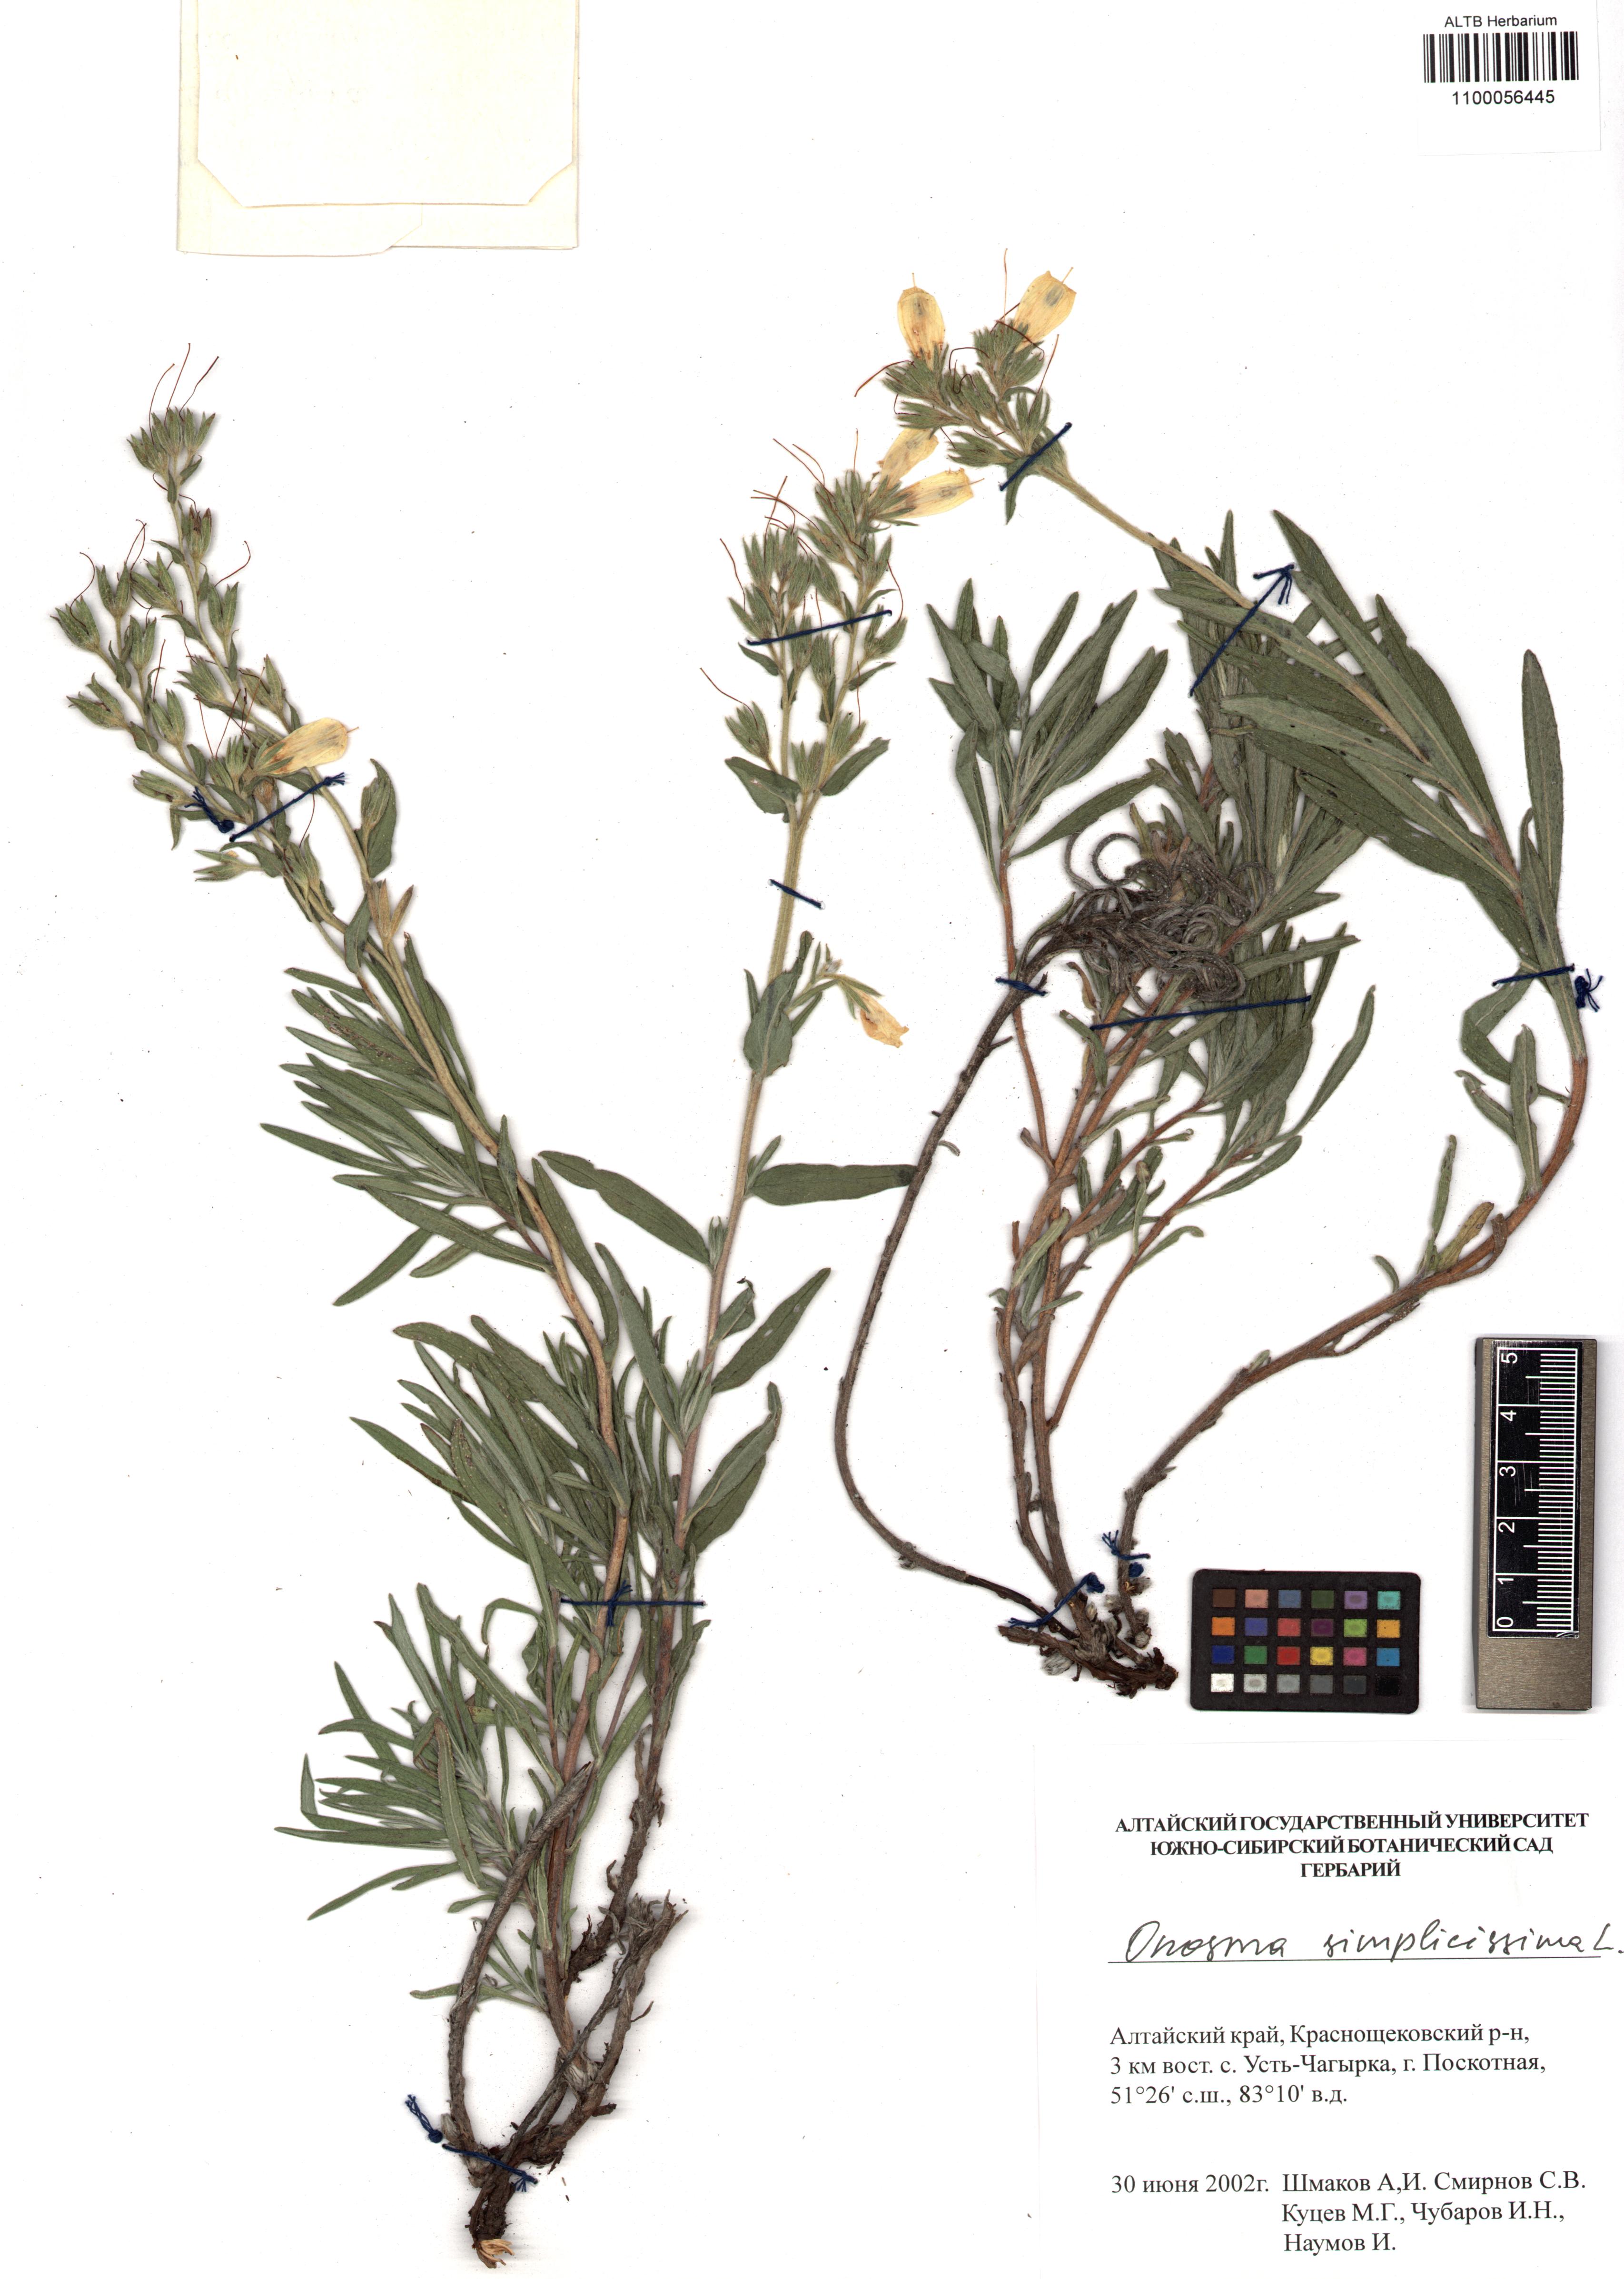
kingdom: Plantae
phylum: Tracheophyta
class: Magnoliopsida
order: Boraginales
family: Boraginaceae
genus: Onosma
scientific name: Onosma simplicissima
